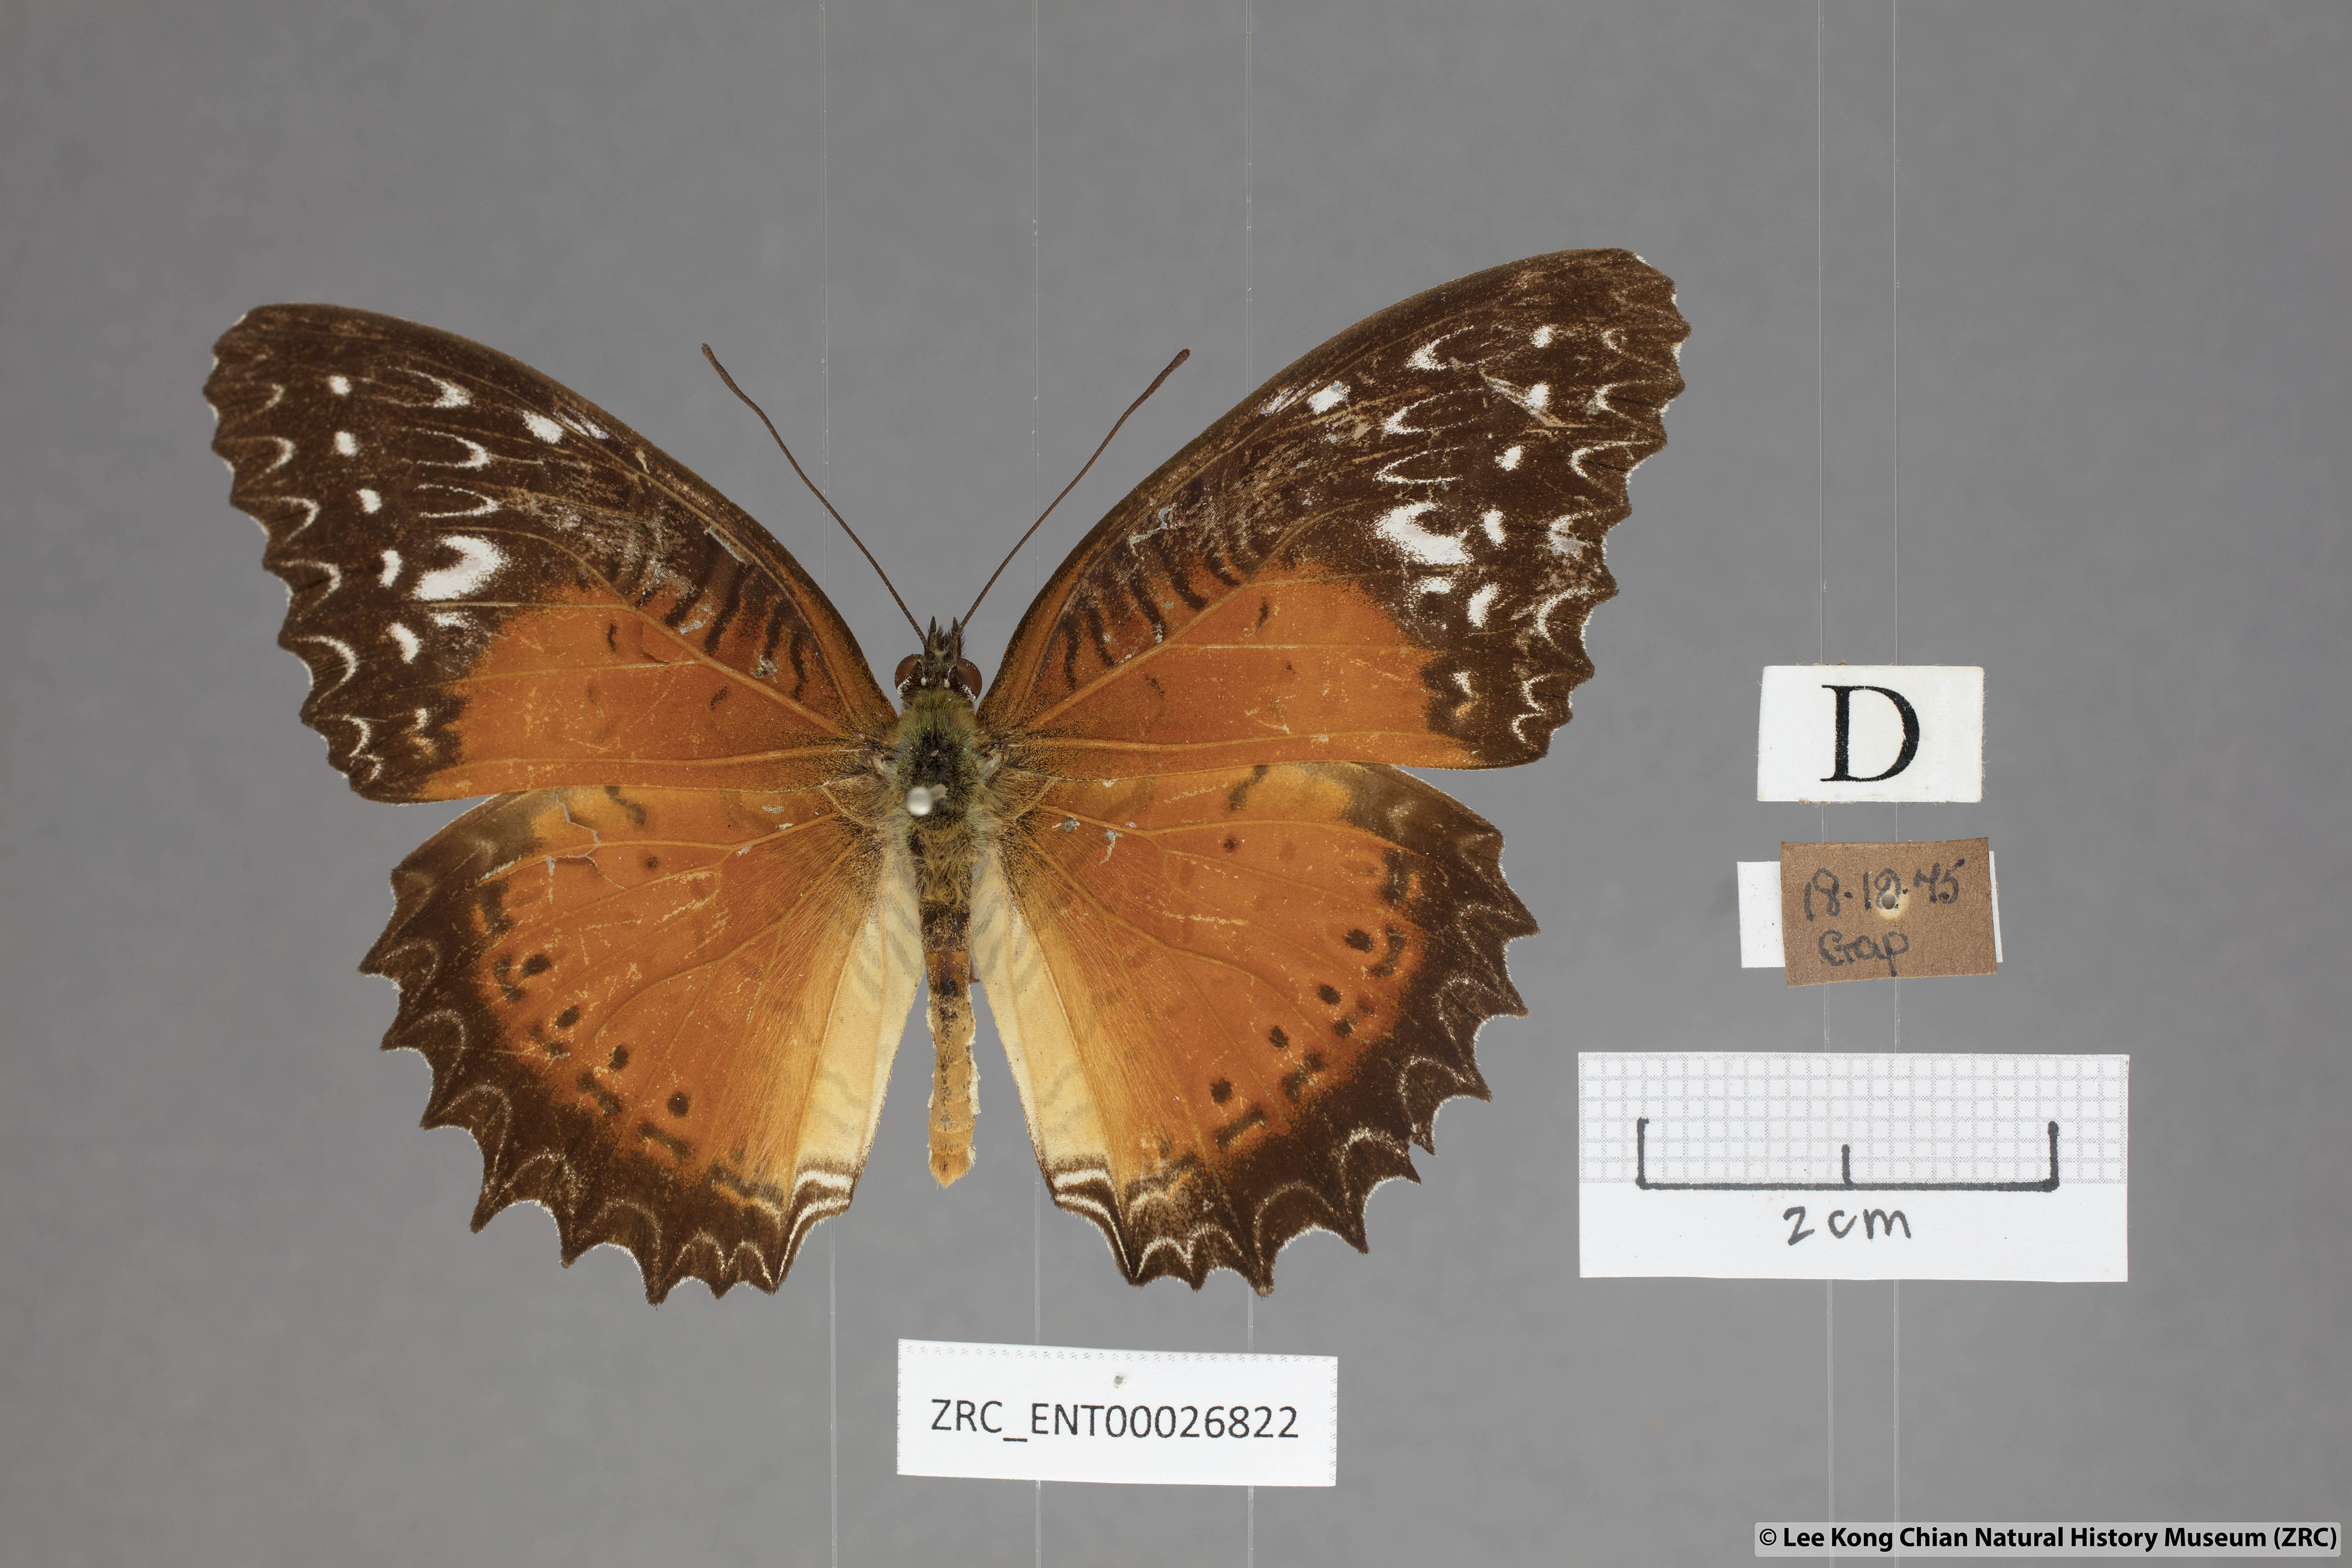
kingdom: Animalia
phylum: Arthropoda
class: Insecta
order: Lepidoptera
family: Nymphalidae
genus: Cethosia
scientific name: Cethosia biblis
